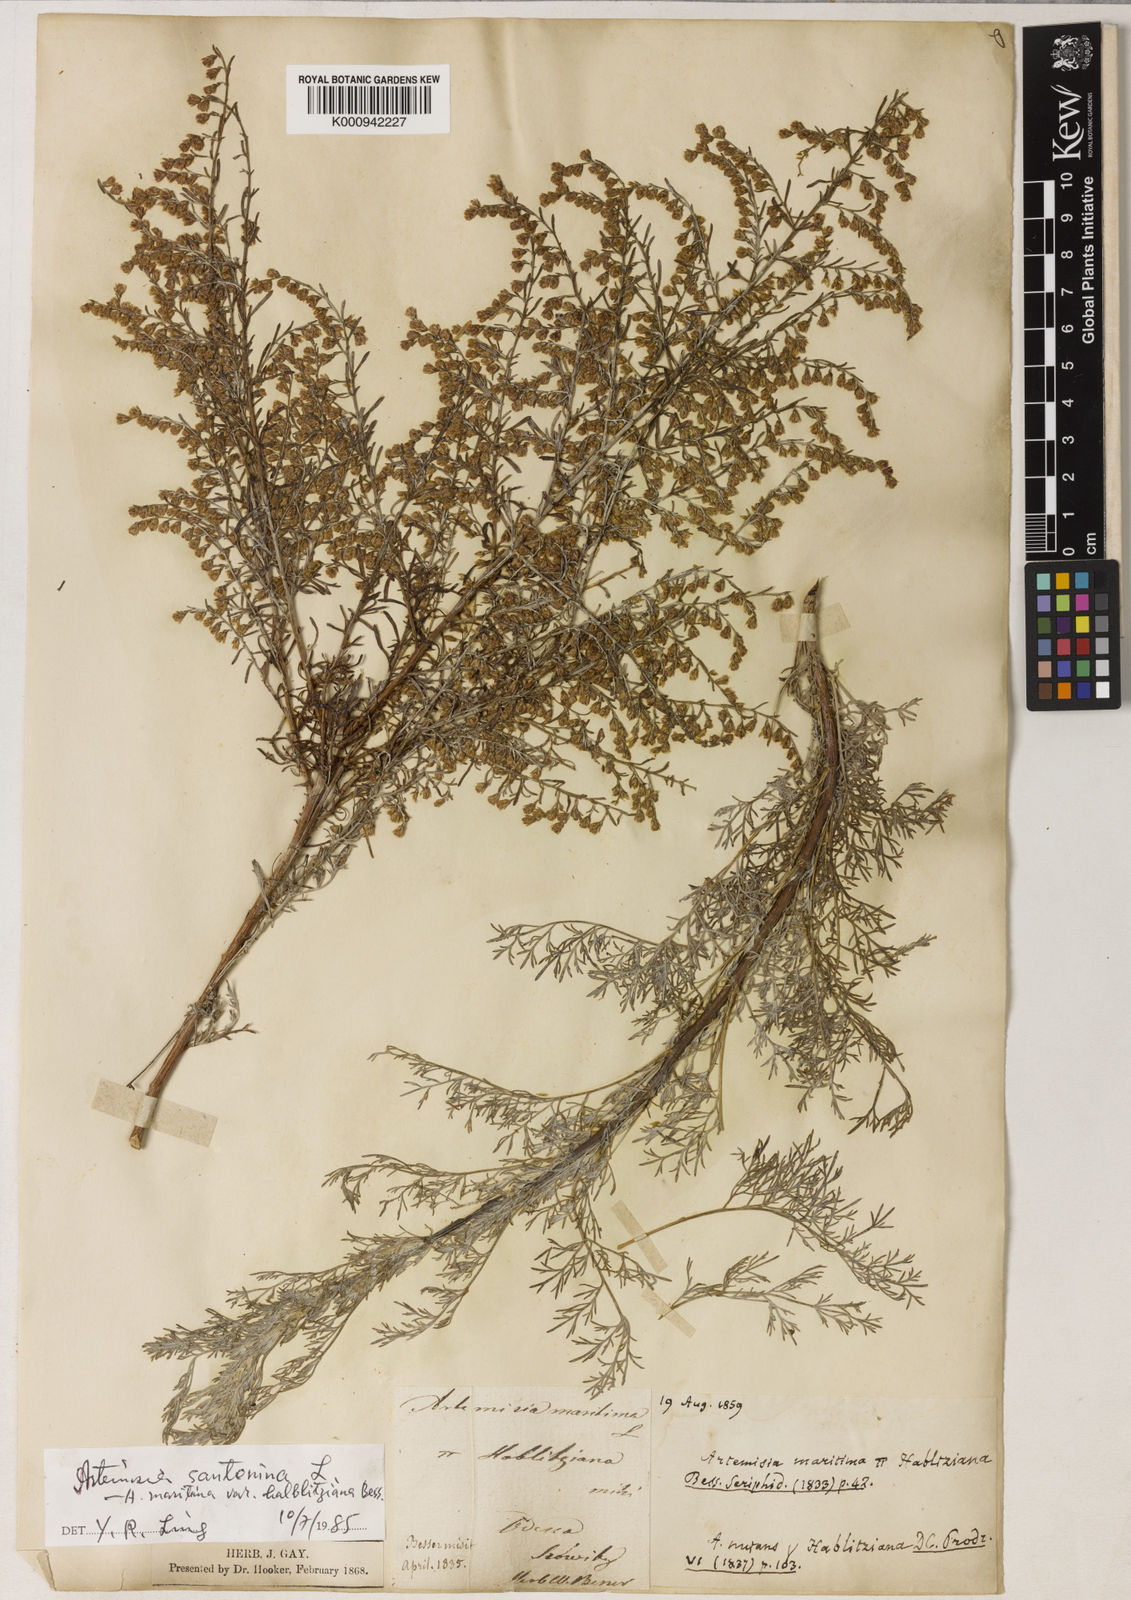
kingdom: Plantae
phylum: Tracheophyta
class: Magnoliopsida
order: Asterales
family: Asteraceae
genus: Seriphidium
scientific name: Seriphidium
